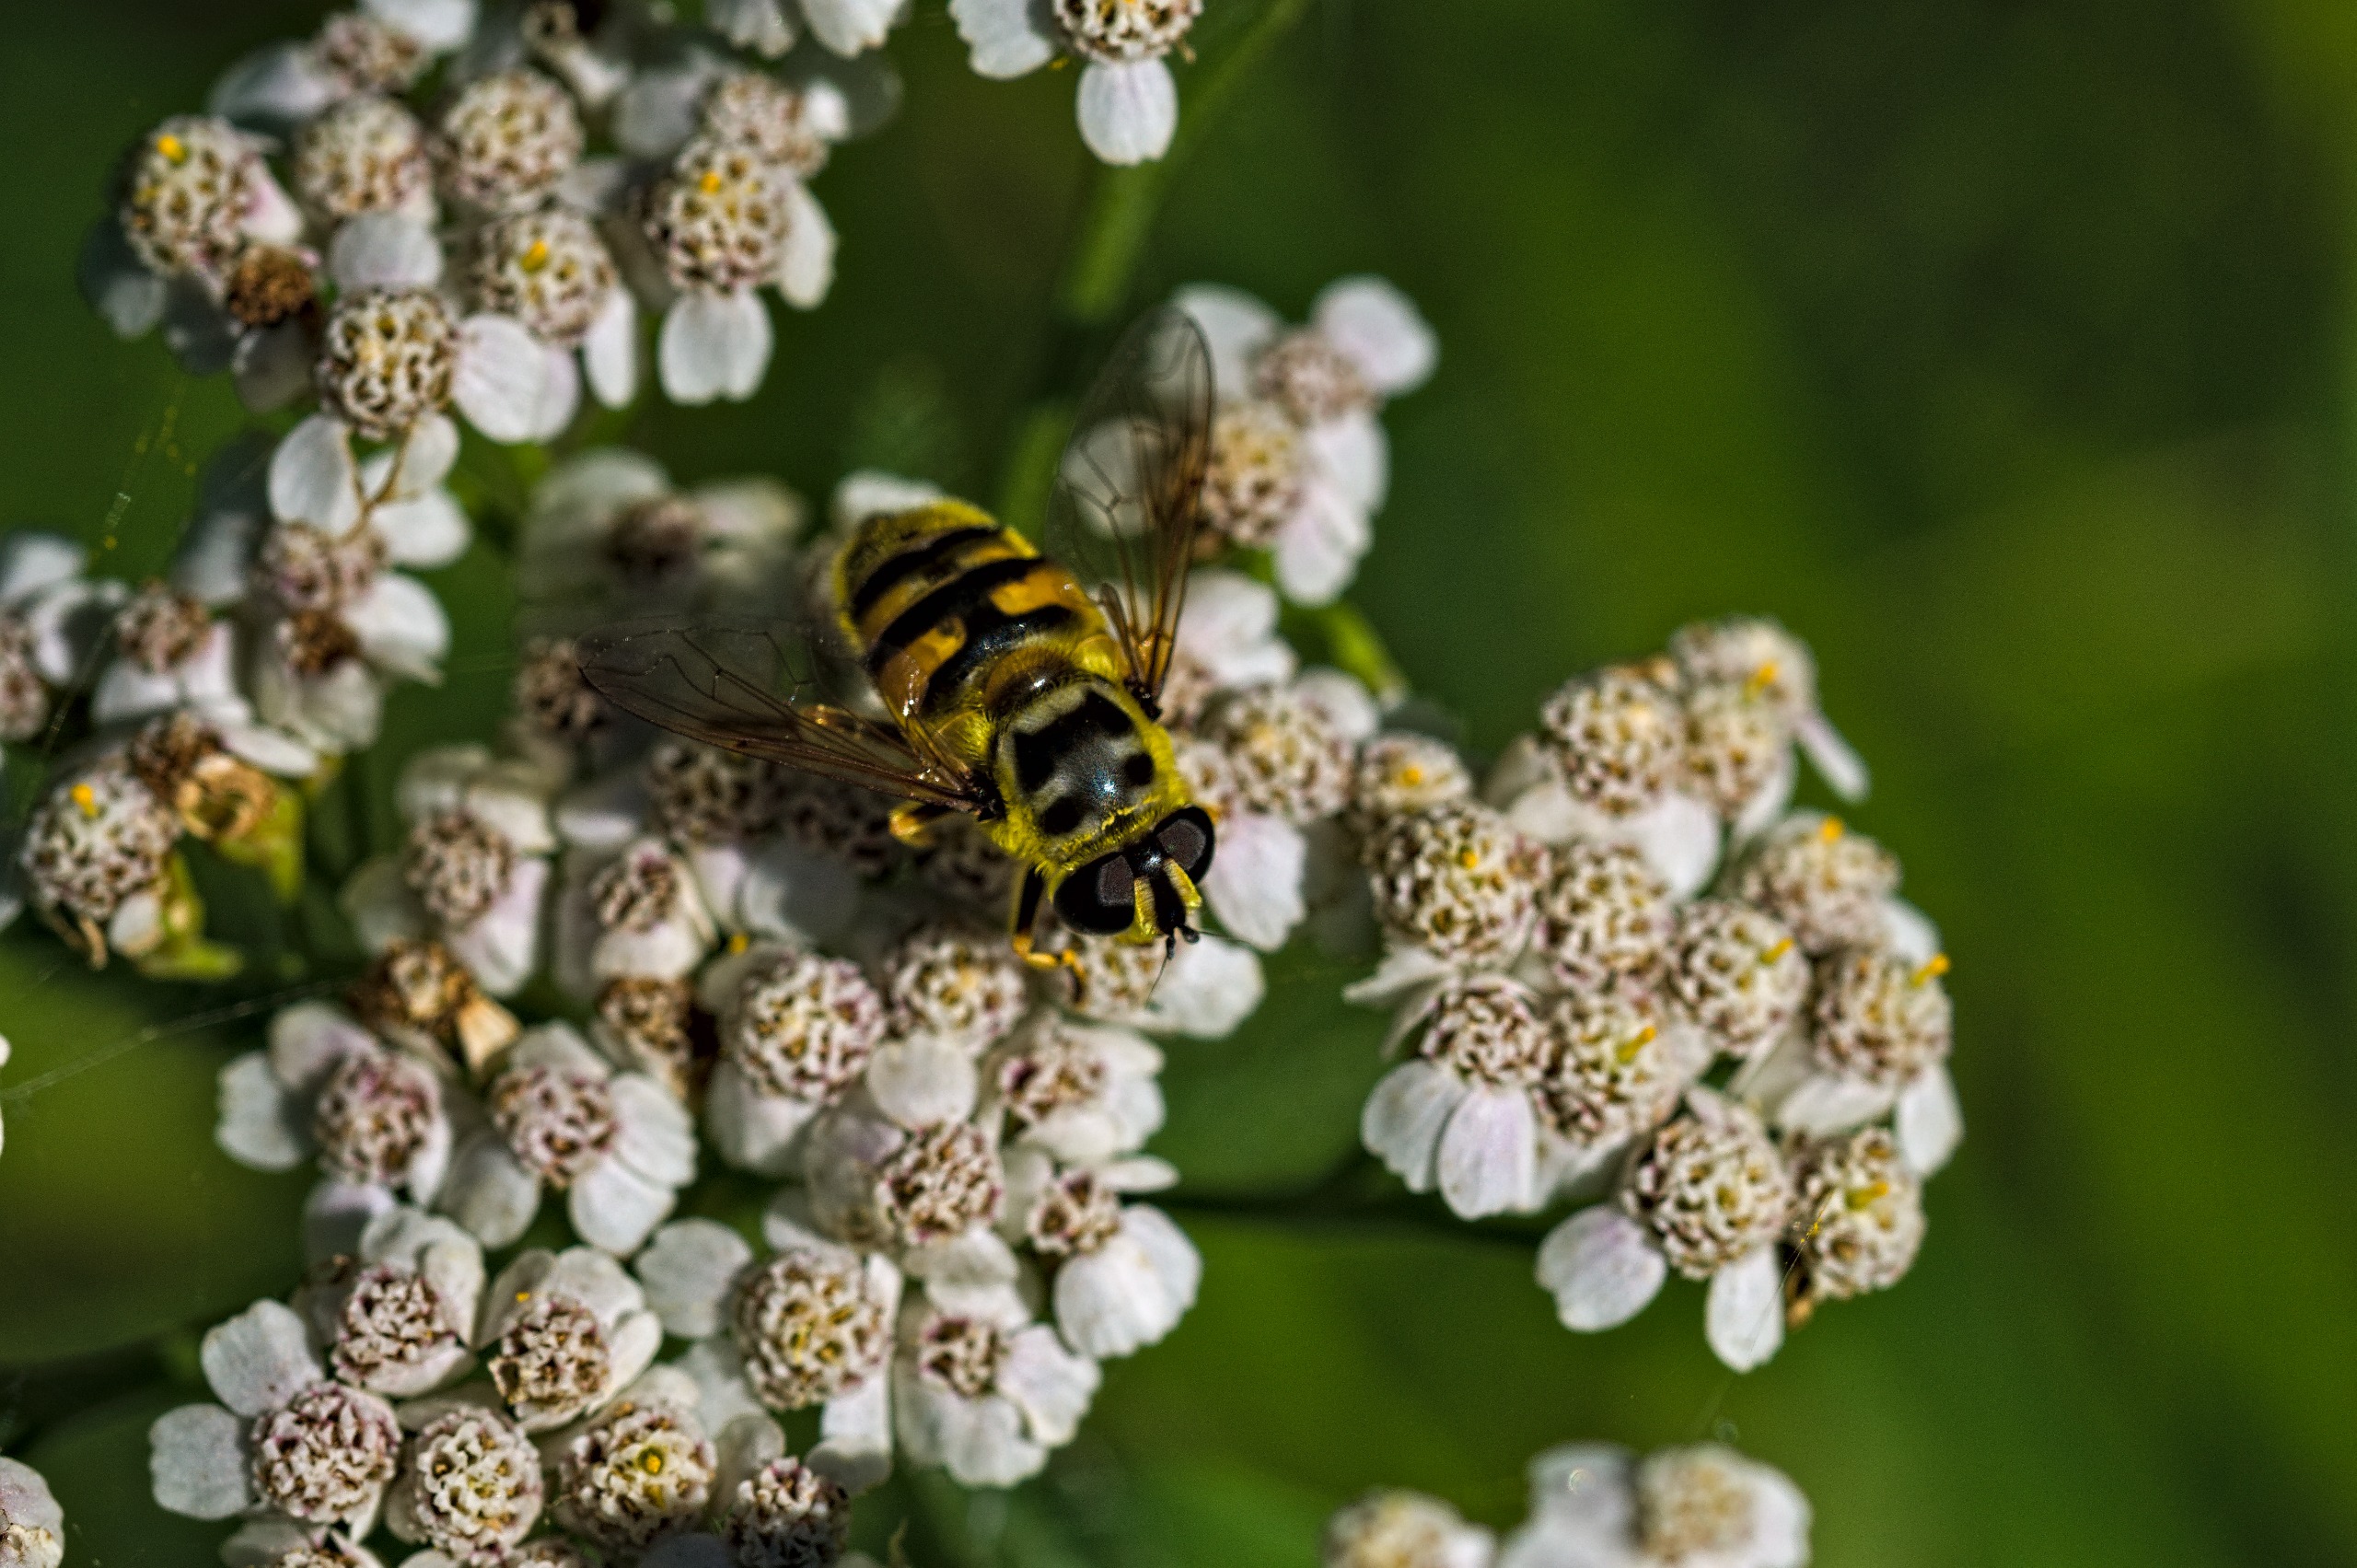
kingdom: Animalia
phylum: Arthropoda
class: Insecta
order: Diptera
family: Syrphidae
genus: Myathropa
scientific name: Myathropa florea
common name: Dødningehoved-svirreflue
